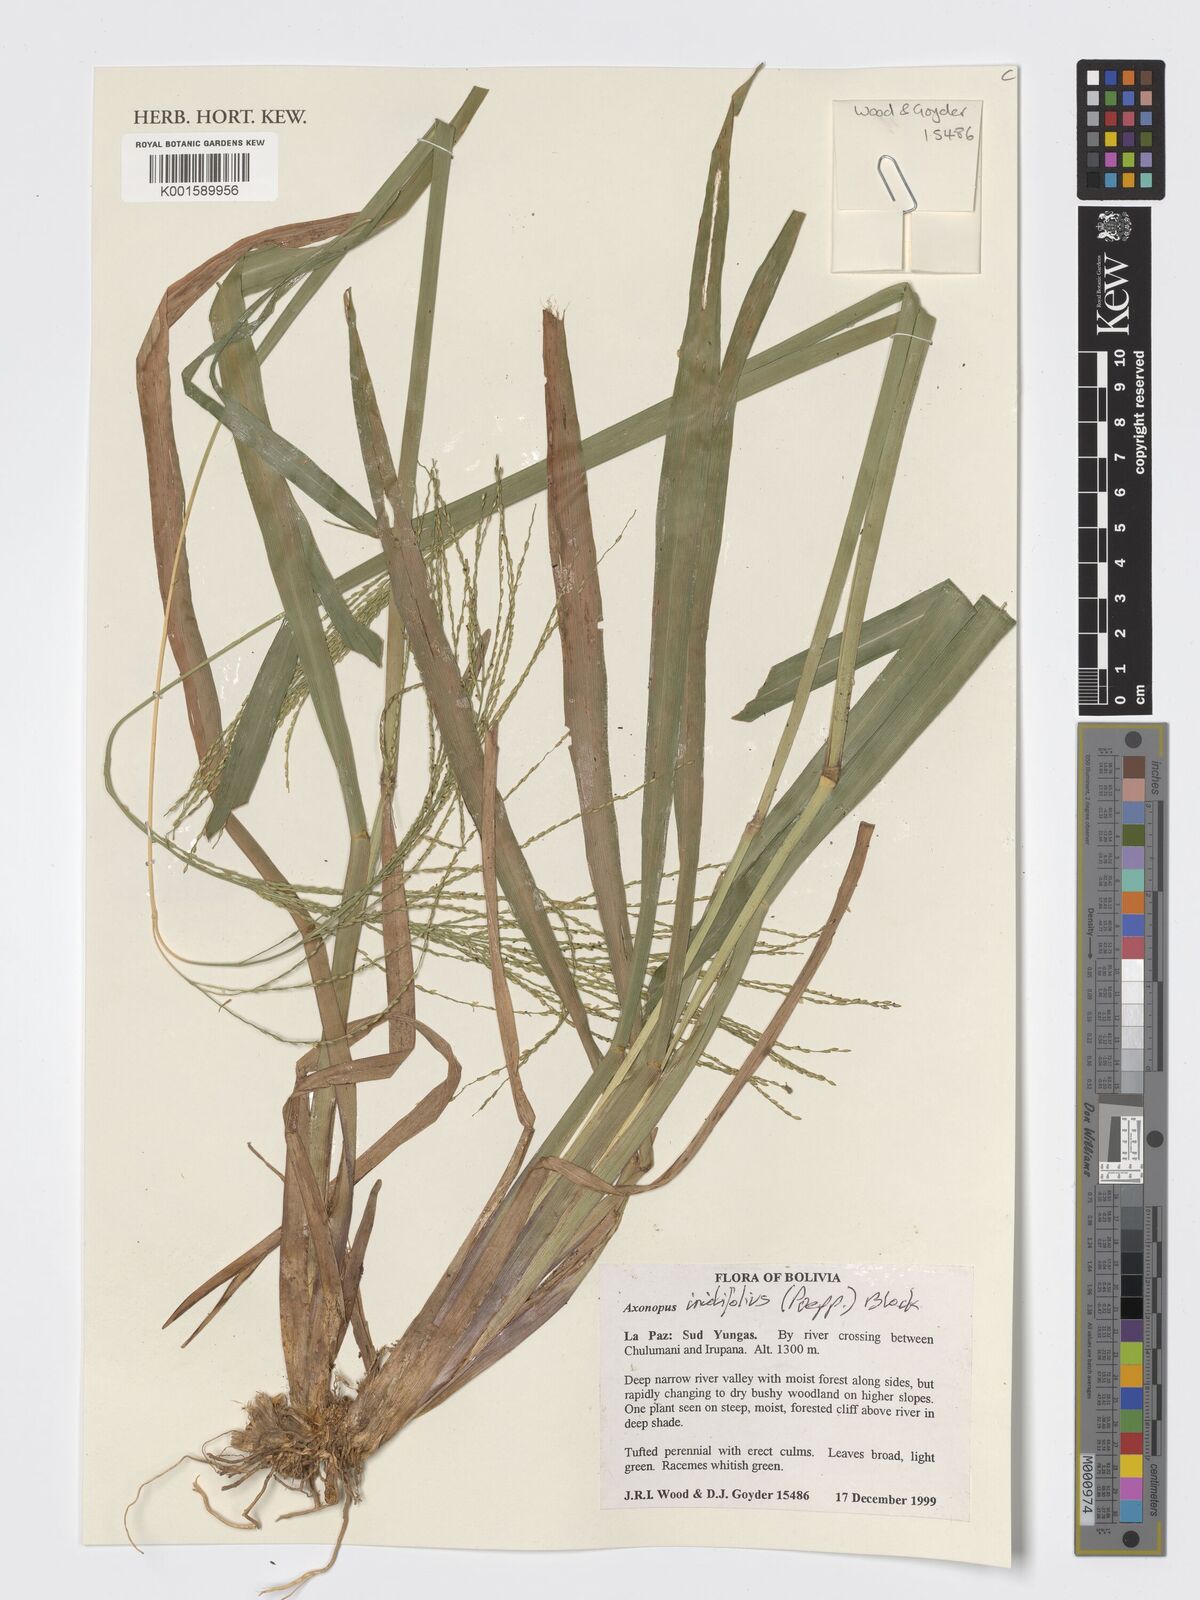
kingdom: Plantae
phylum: Tracheophyta
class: Liliopsida
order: Poales
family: Poaceae
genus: Axonopus
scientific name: Axonopus scoparius
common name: Imperial grass
